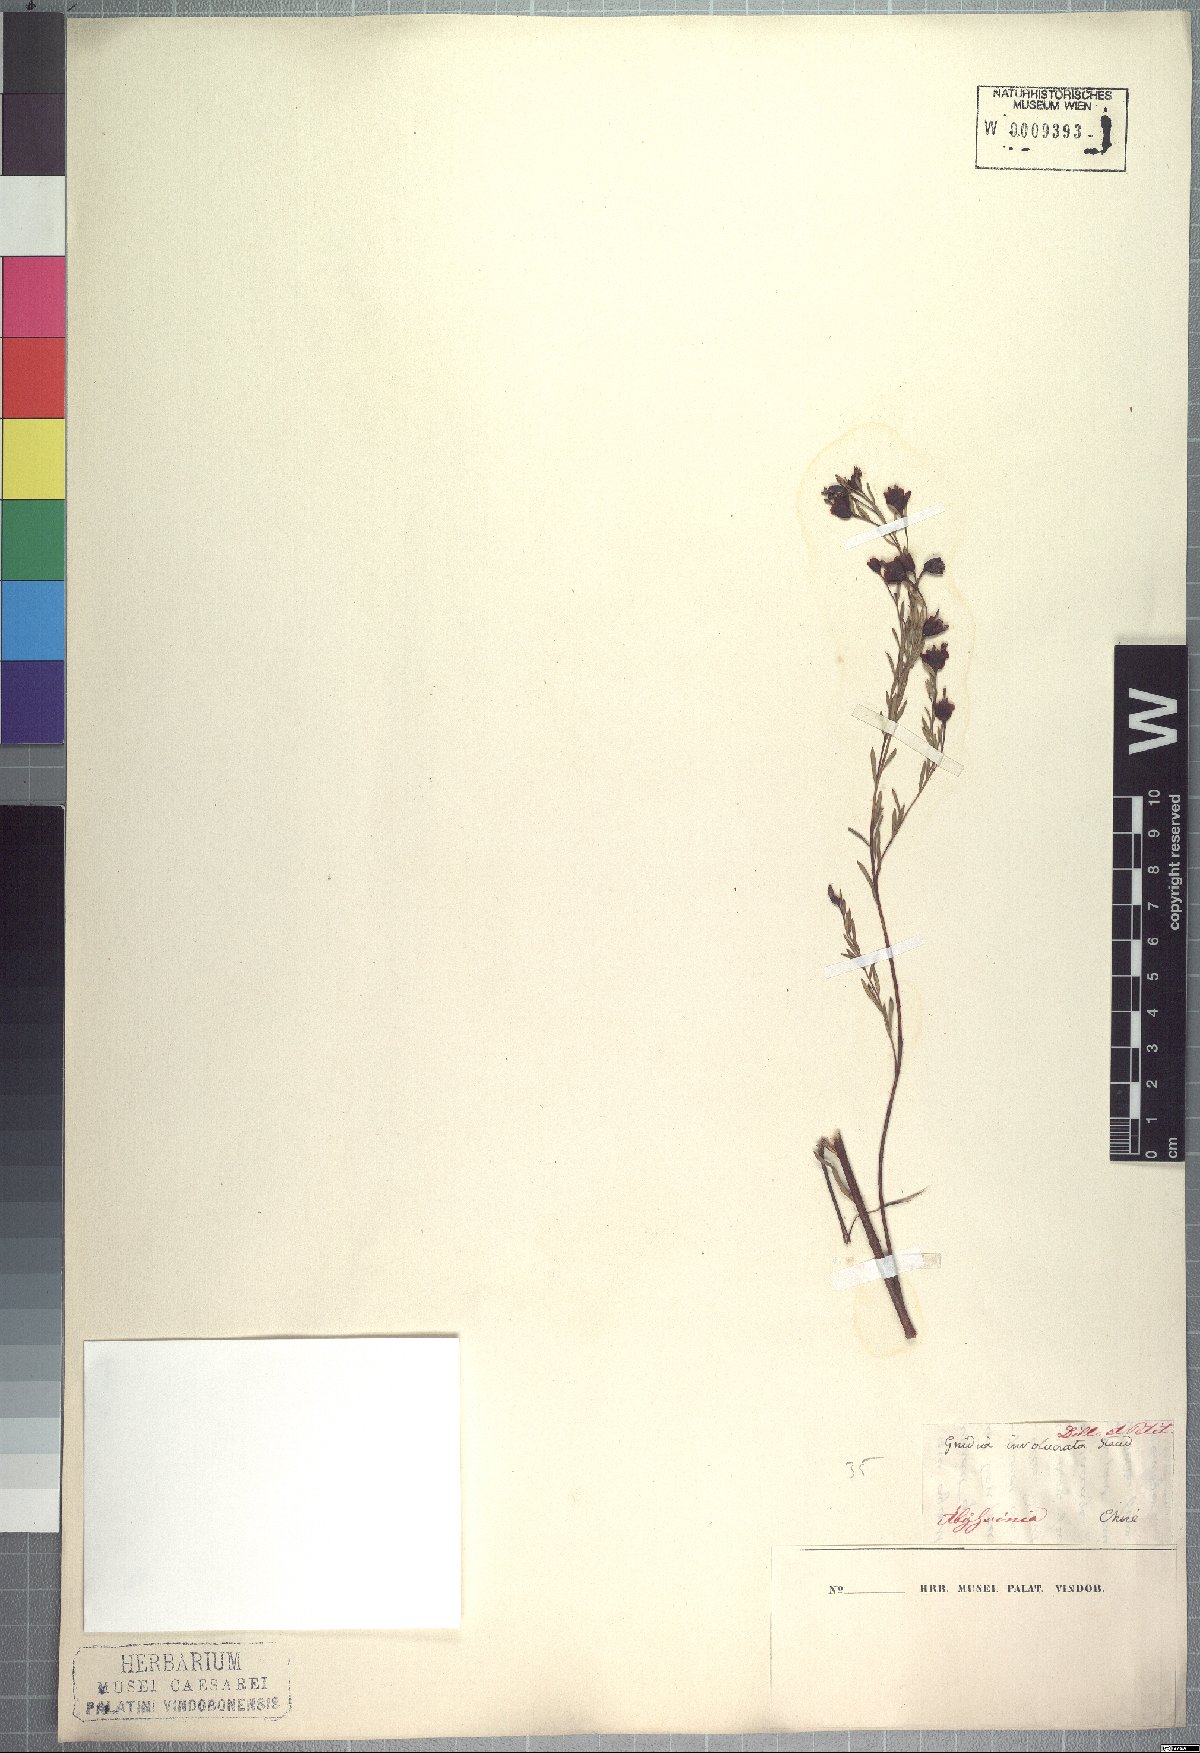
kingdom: Plantae
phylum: Tracheophyta
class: Magnoliopsida
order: Malvales
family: Thymelaeaceae
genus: Gnidia
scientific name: Gnidia involucrata
